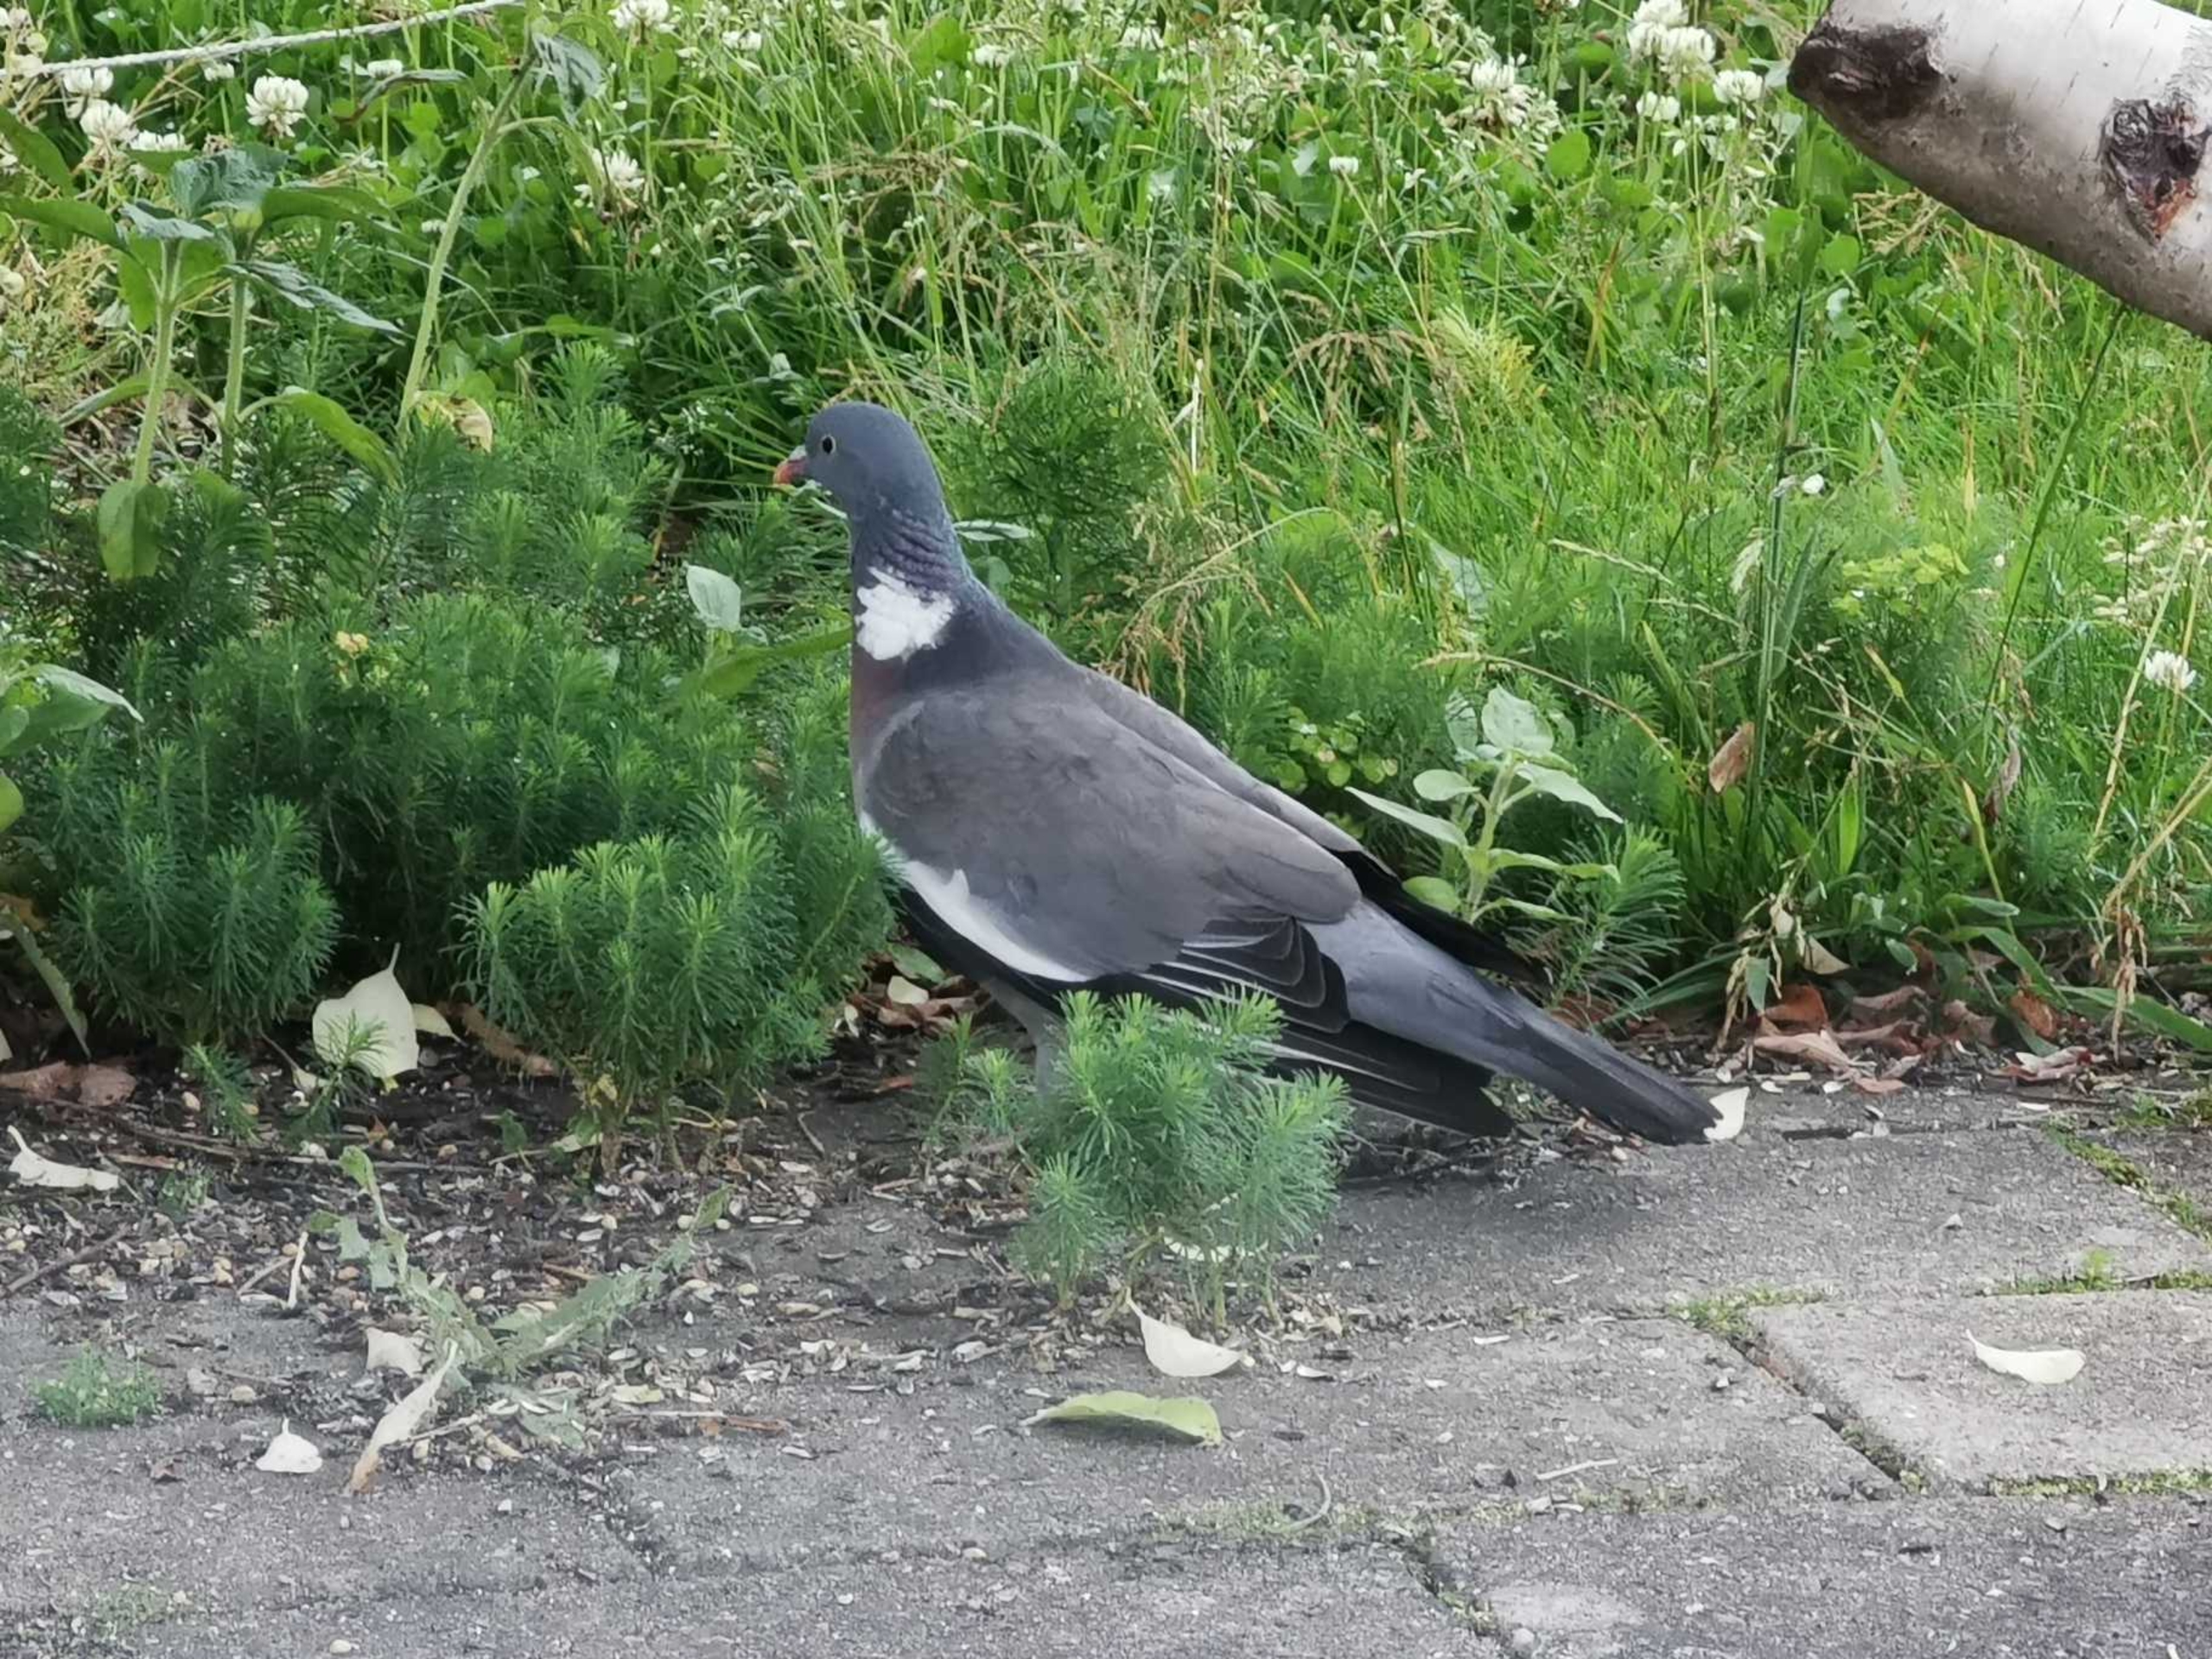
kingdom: Animalia
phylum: Chordata
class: Aves
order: Columbiformes
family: Columbidae
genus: Columba
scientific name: Columba palumbus
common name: Ringdue
